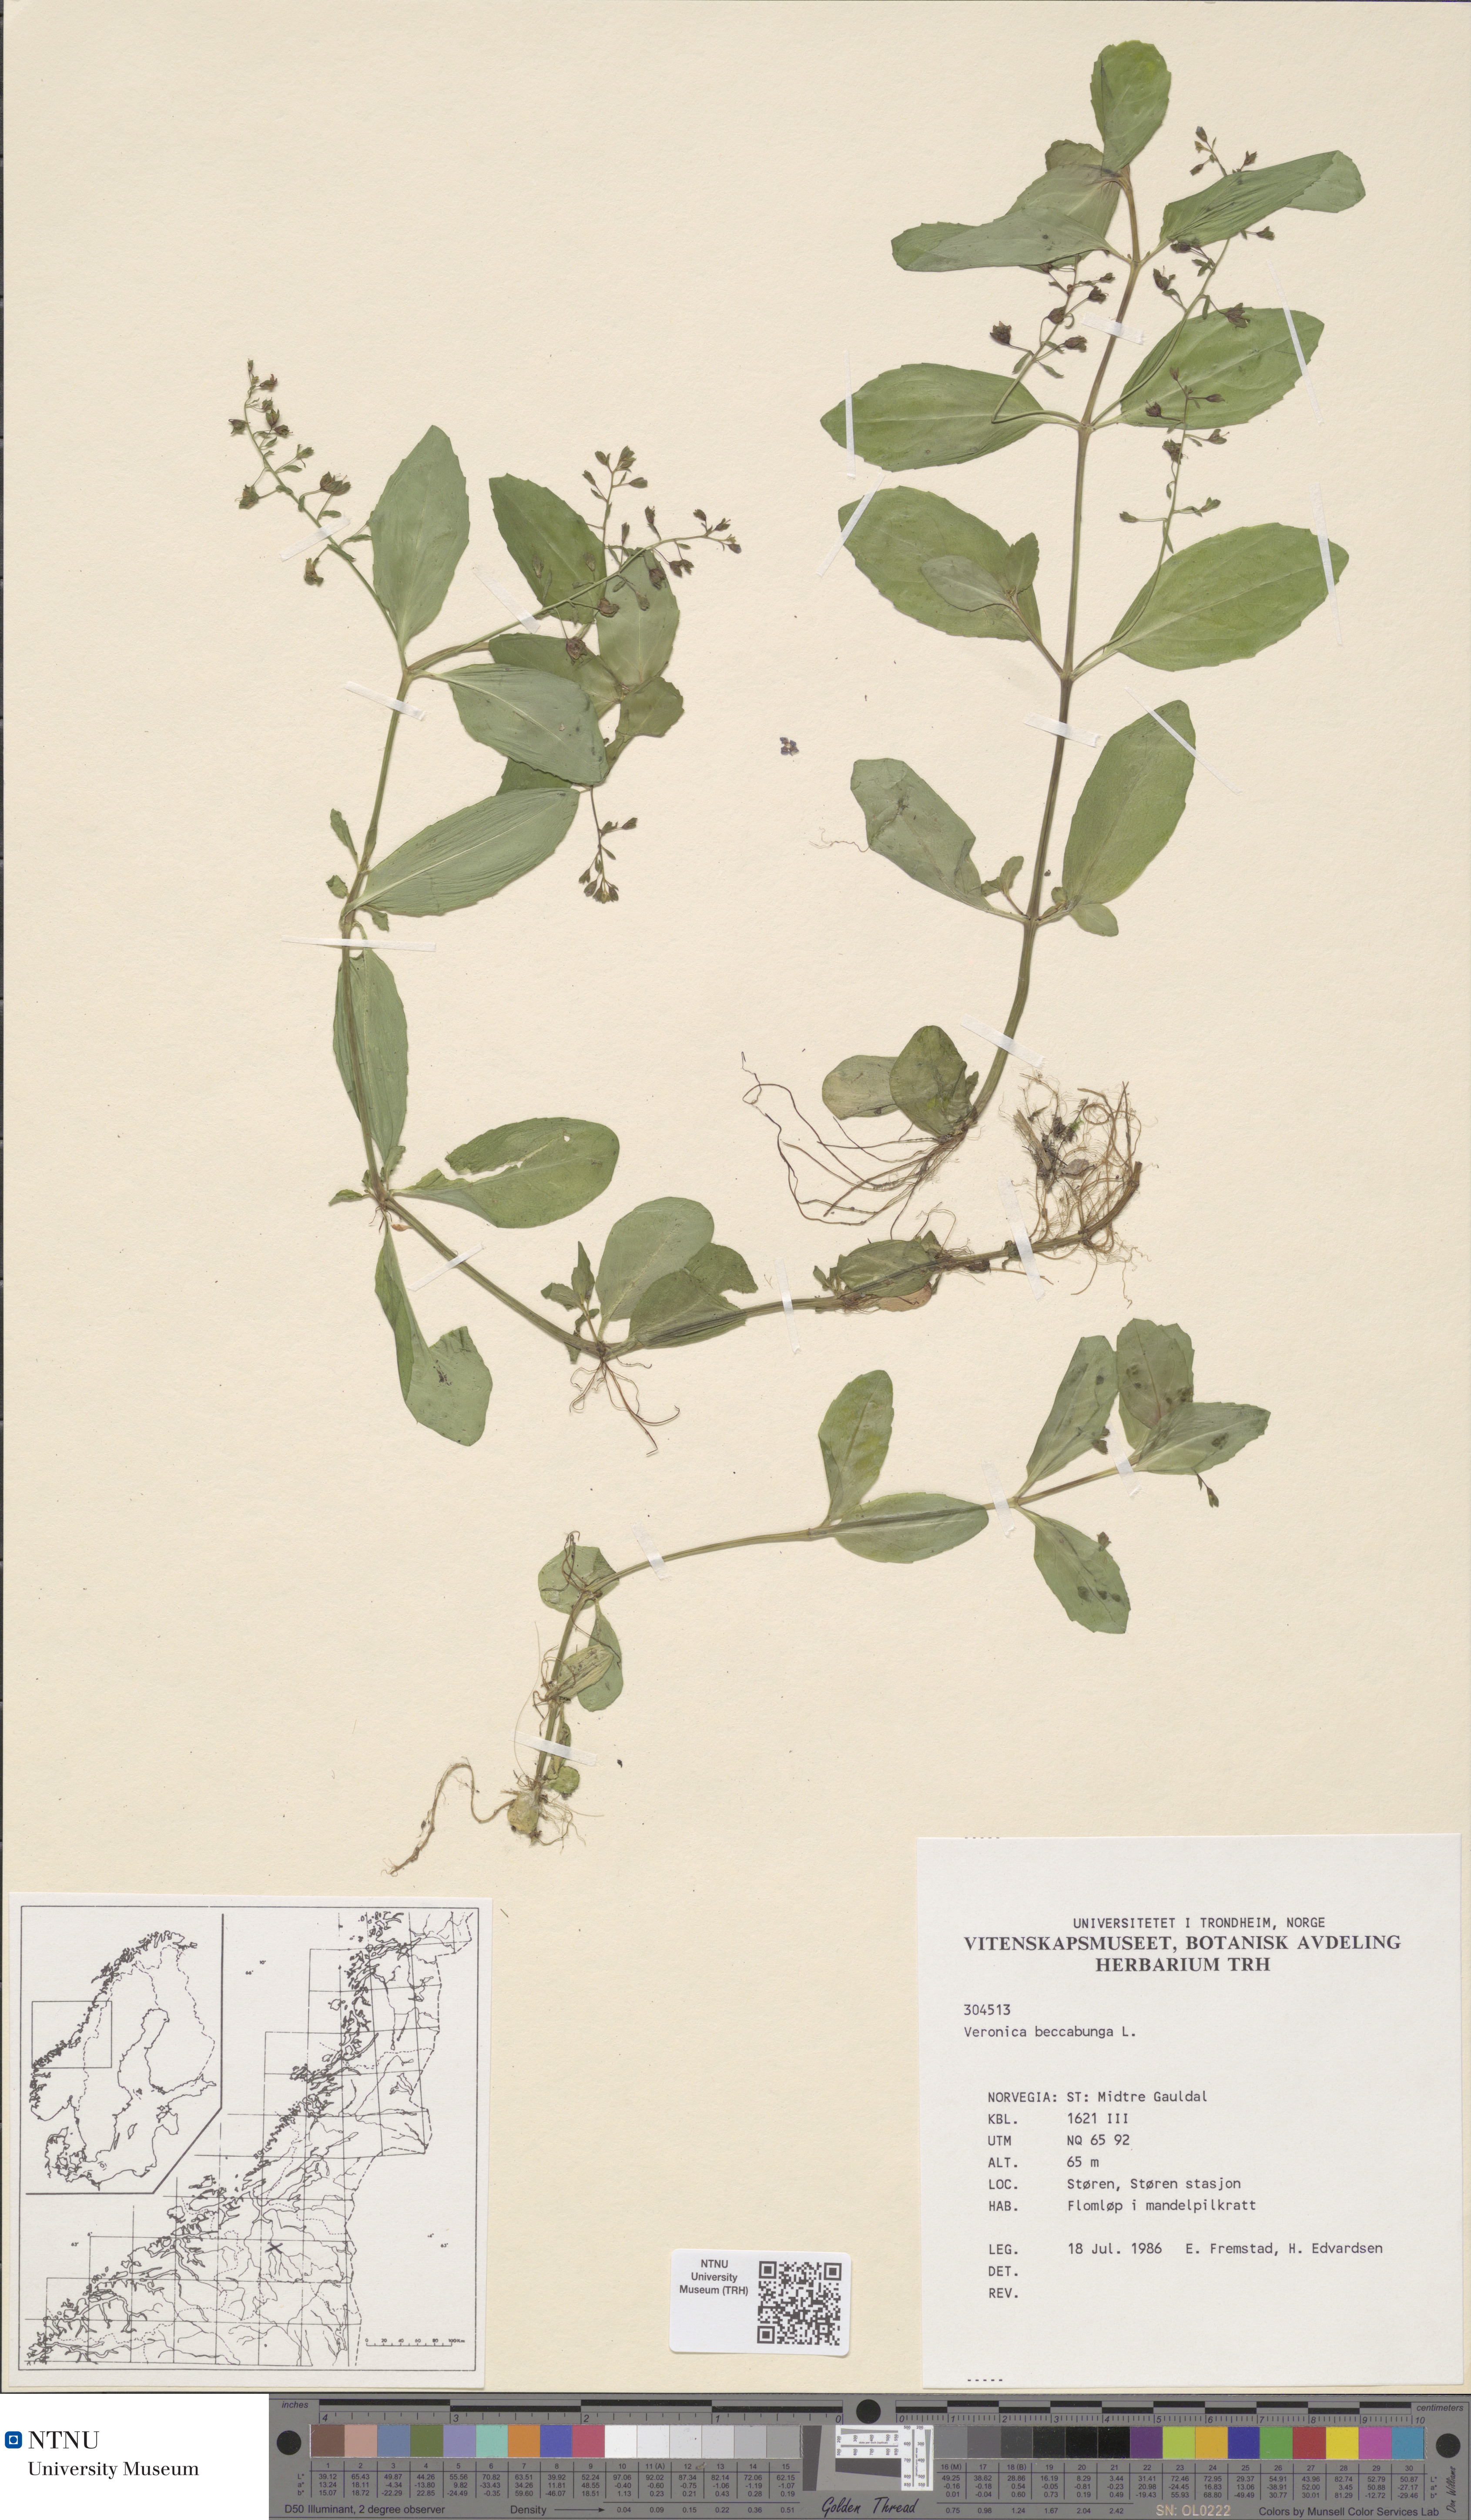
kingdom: Plantae
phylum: Tracheophyta
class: Magnoliopsida
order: Lamiales
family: Plantaginaceae
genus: Veronica
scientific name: Veronica beccabunga
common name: Brooklime
